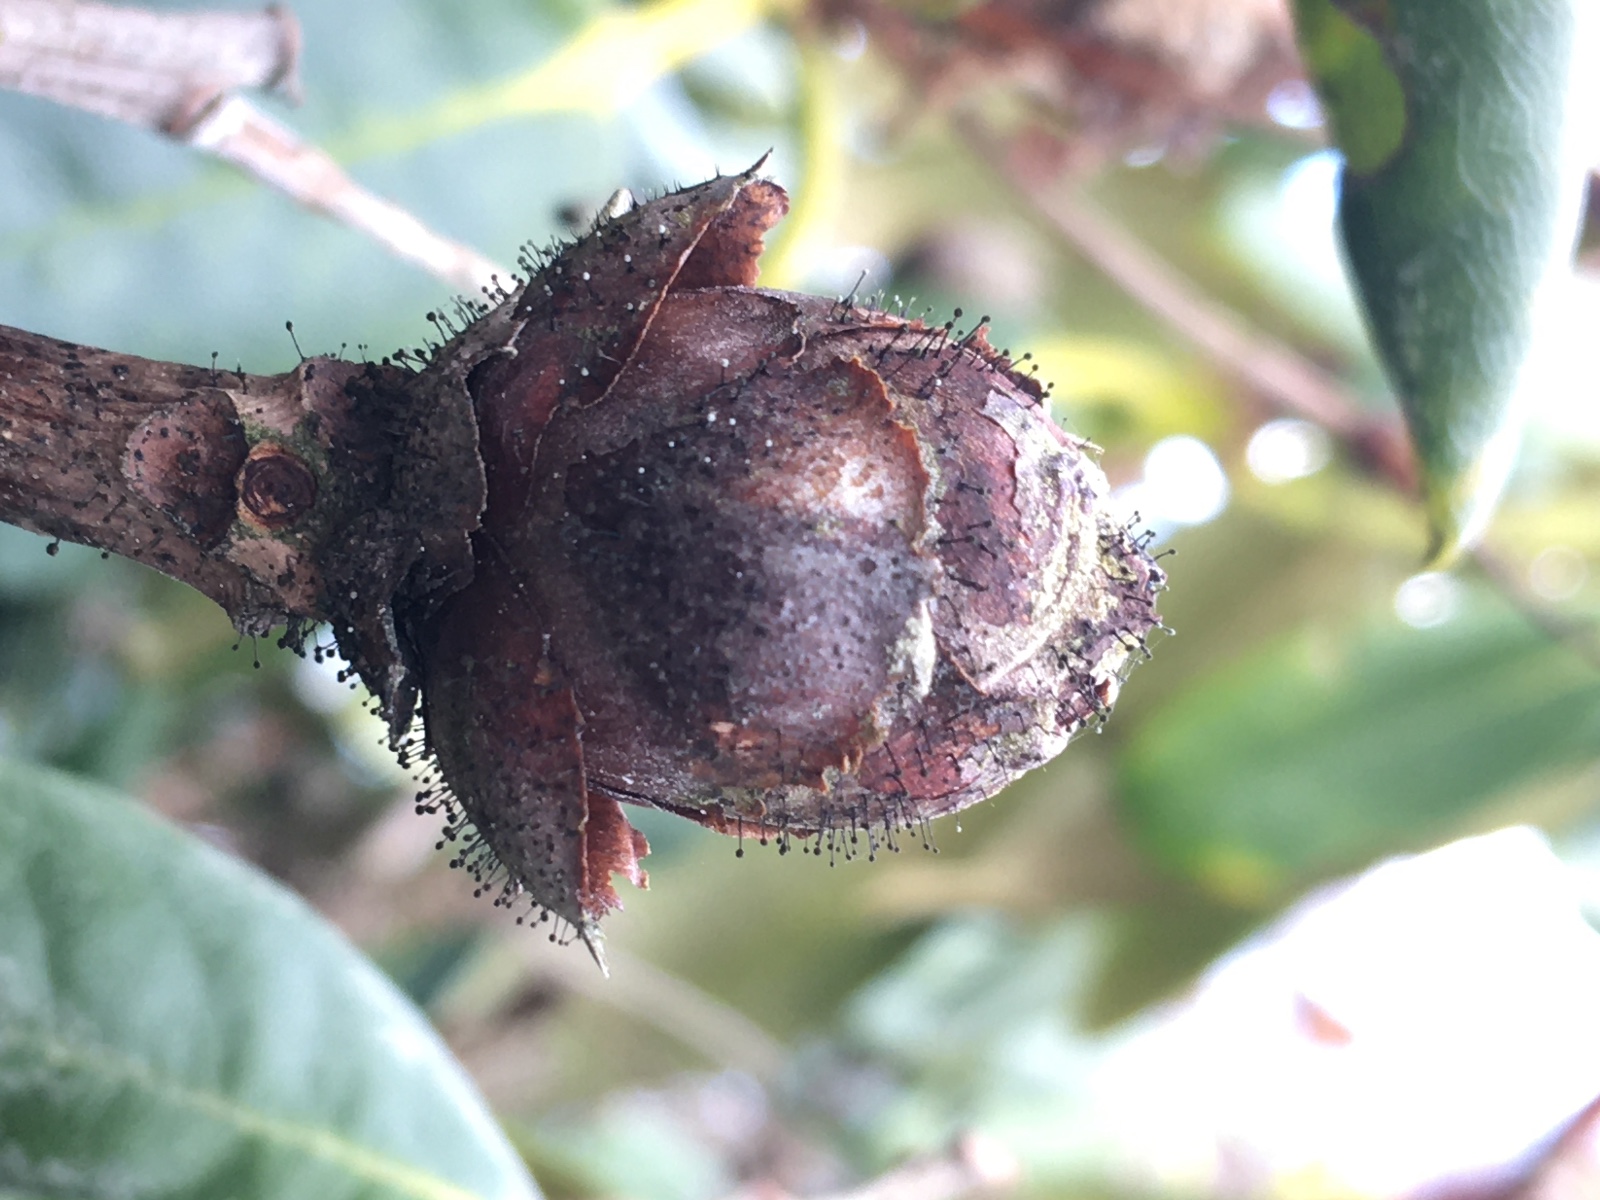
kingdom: Fungi
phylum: Ascomycota
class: Dothideomycetes
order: Pleosporales
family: Melanommataceae
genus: Seifertia
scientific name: Seifertia azaleae
